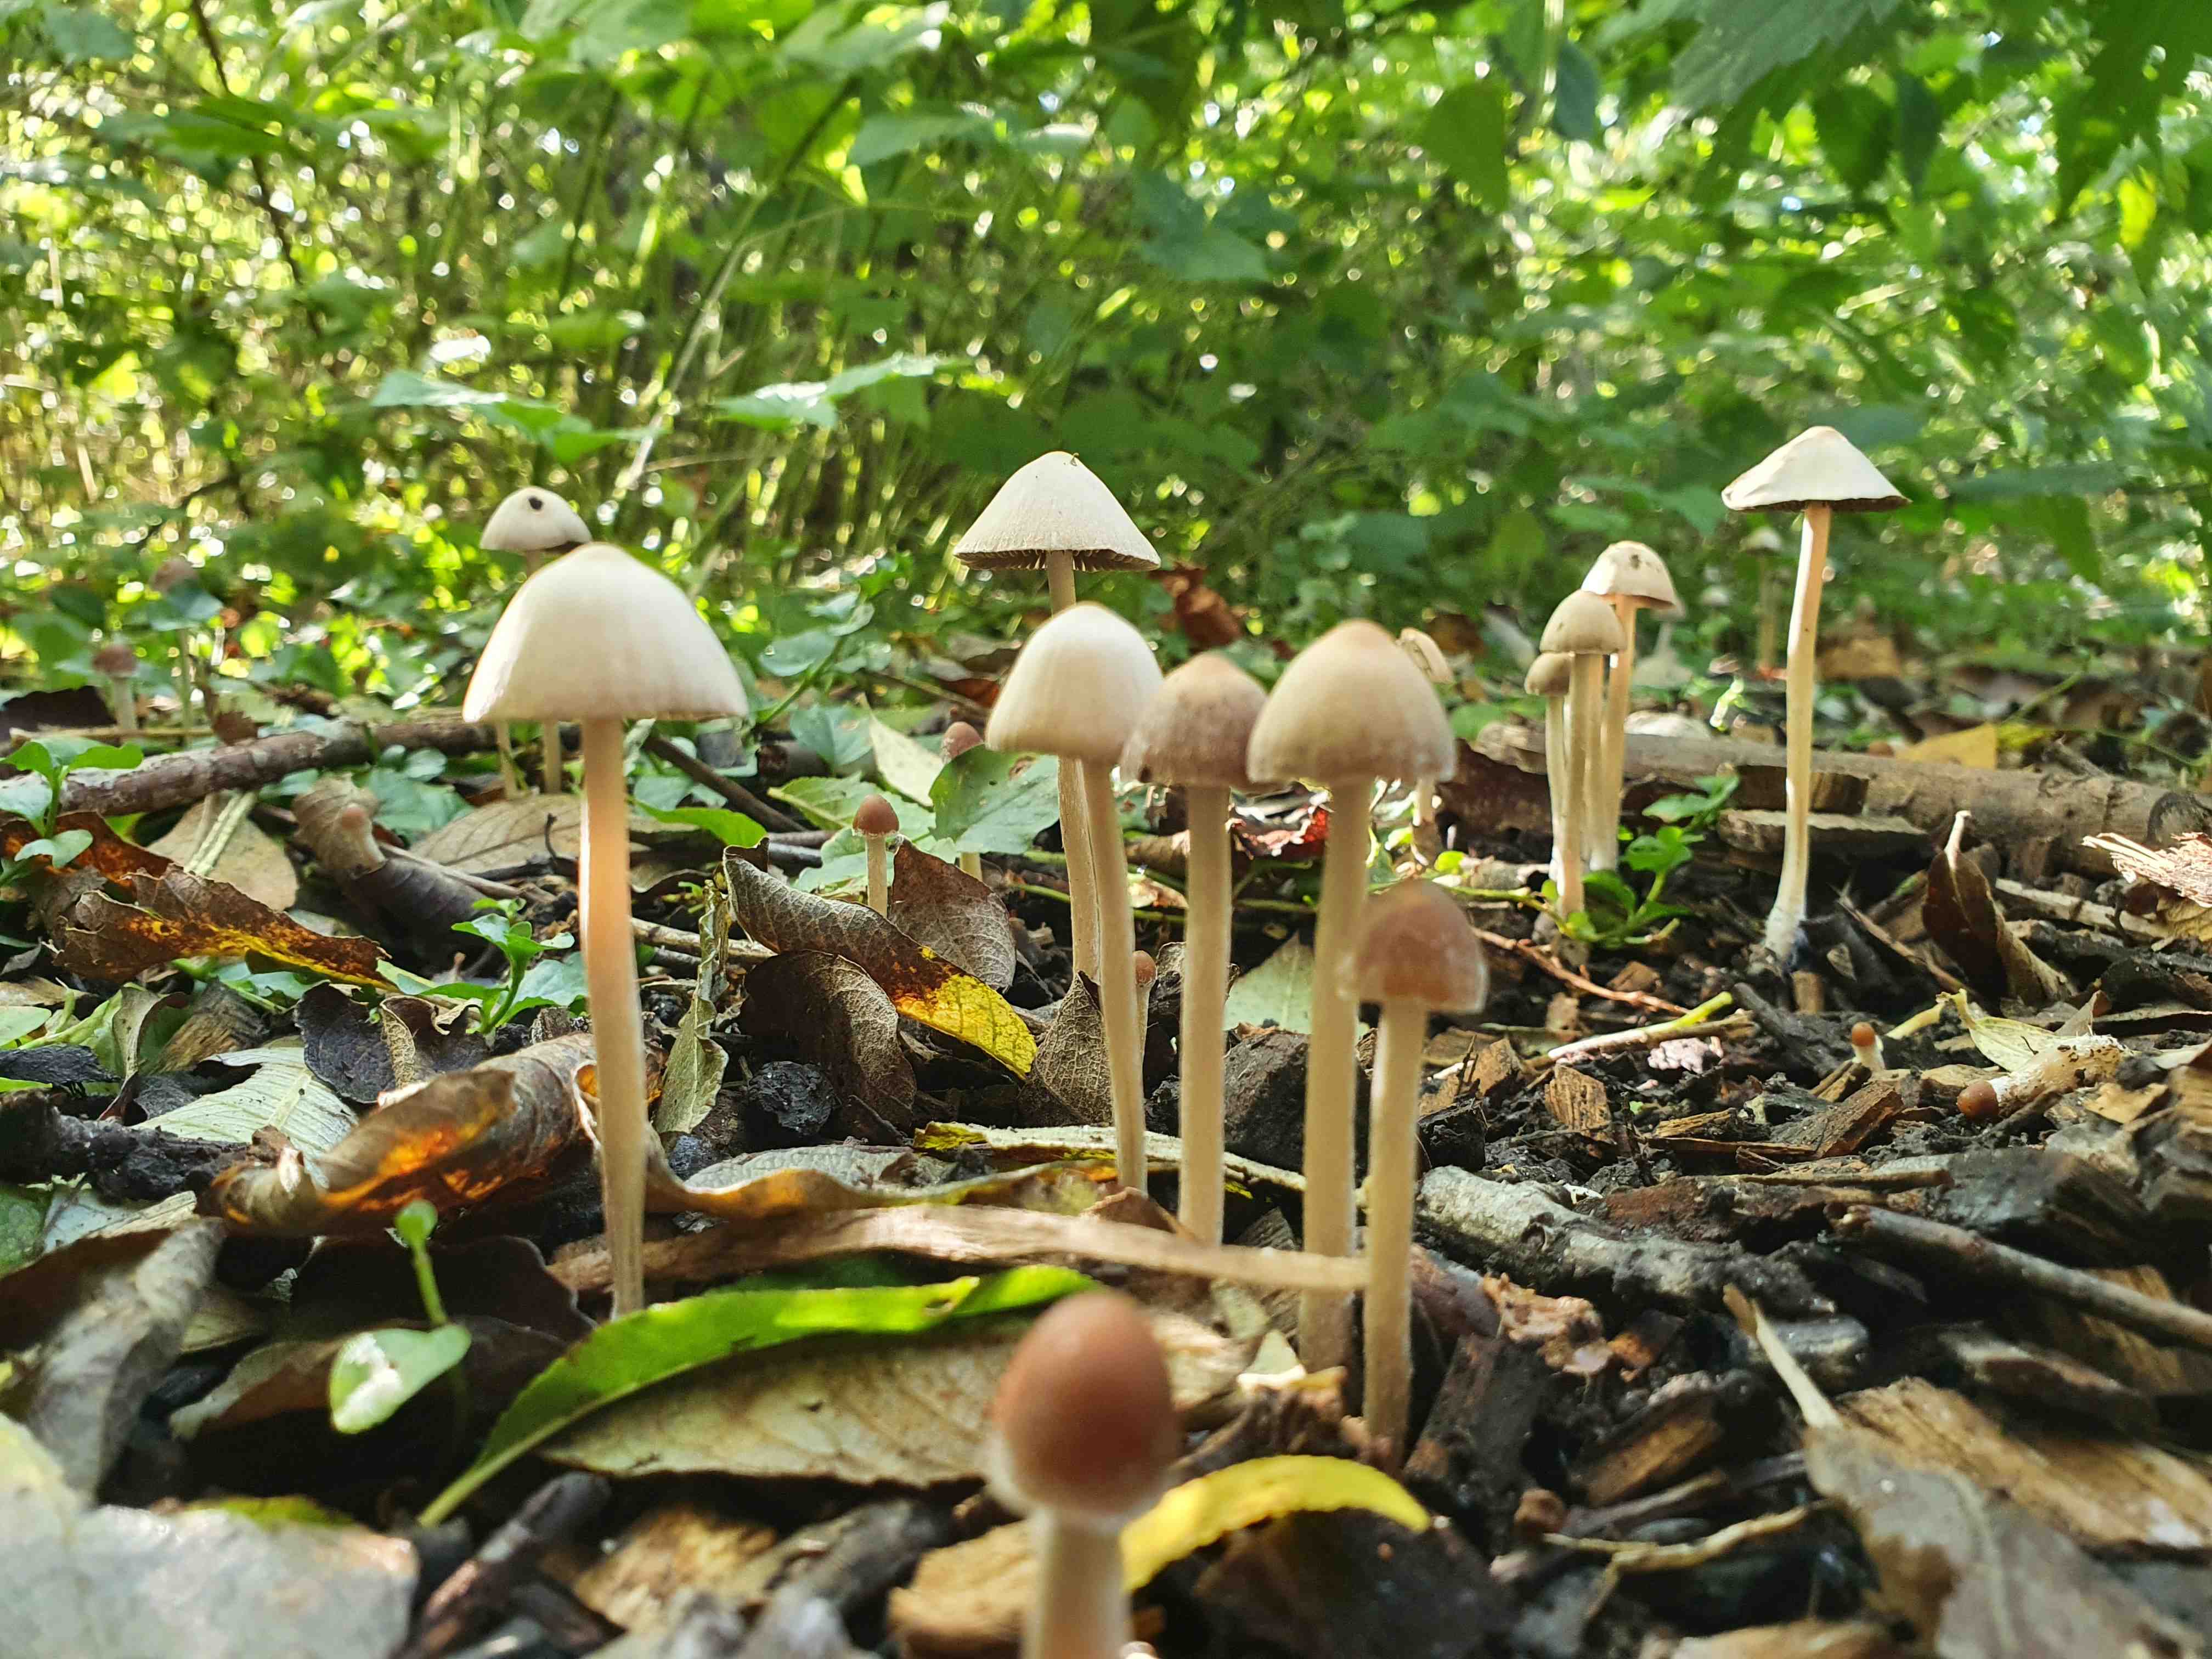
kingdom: Fungi
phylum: Basidiomycota
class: Agaricomycetes
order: Agaricales
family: Psathyrellaceae
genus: Parasola
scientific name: Parasola conopilea
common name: kegle-hjulhat
